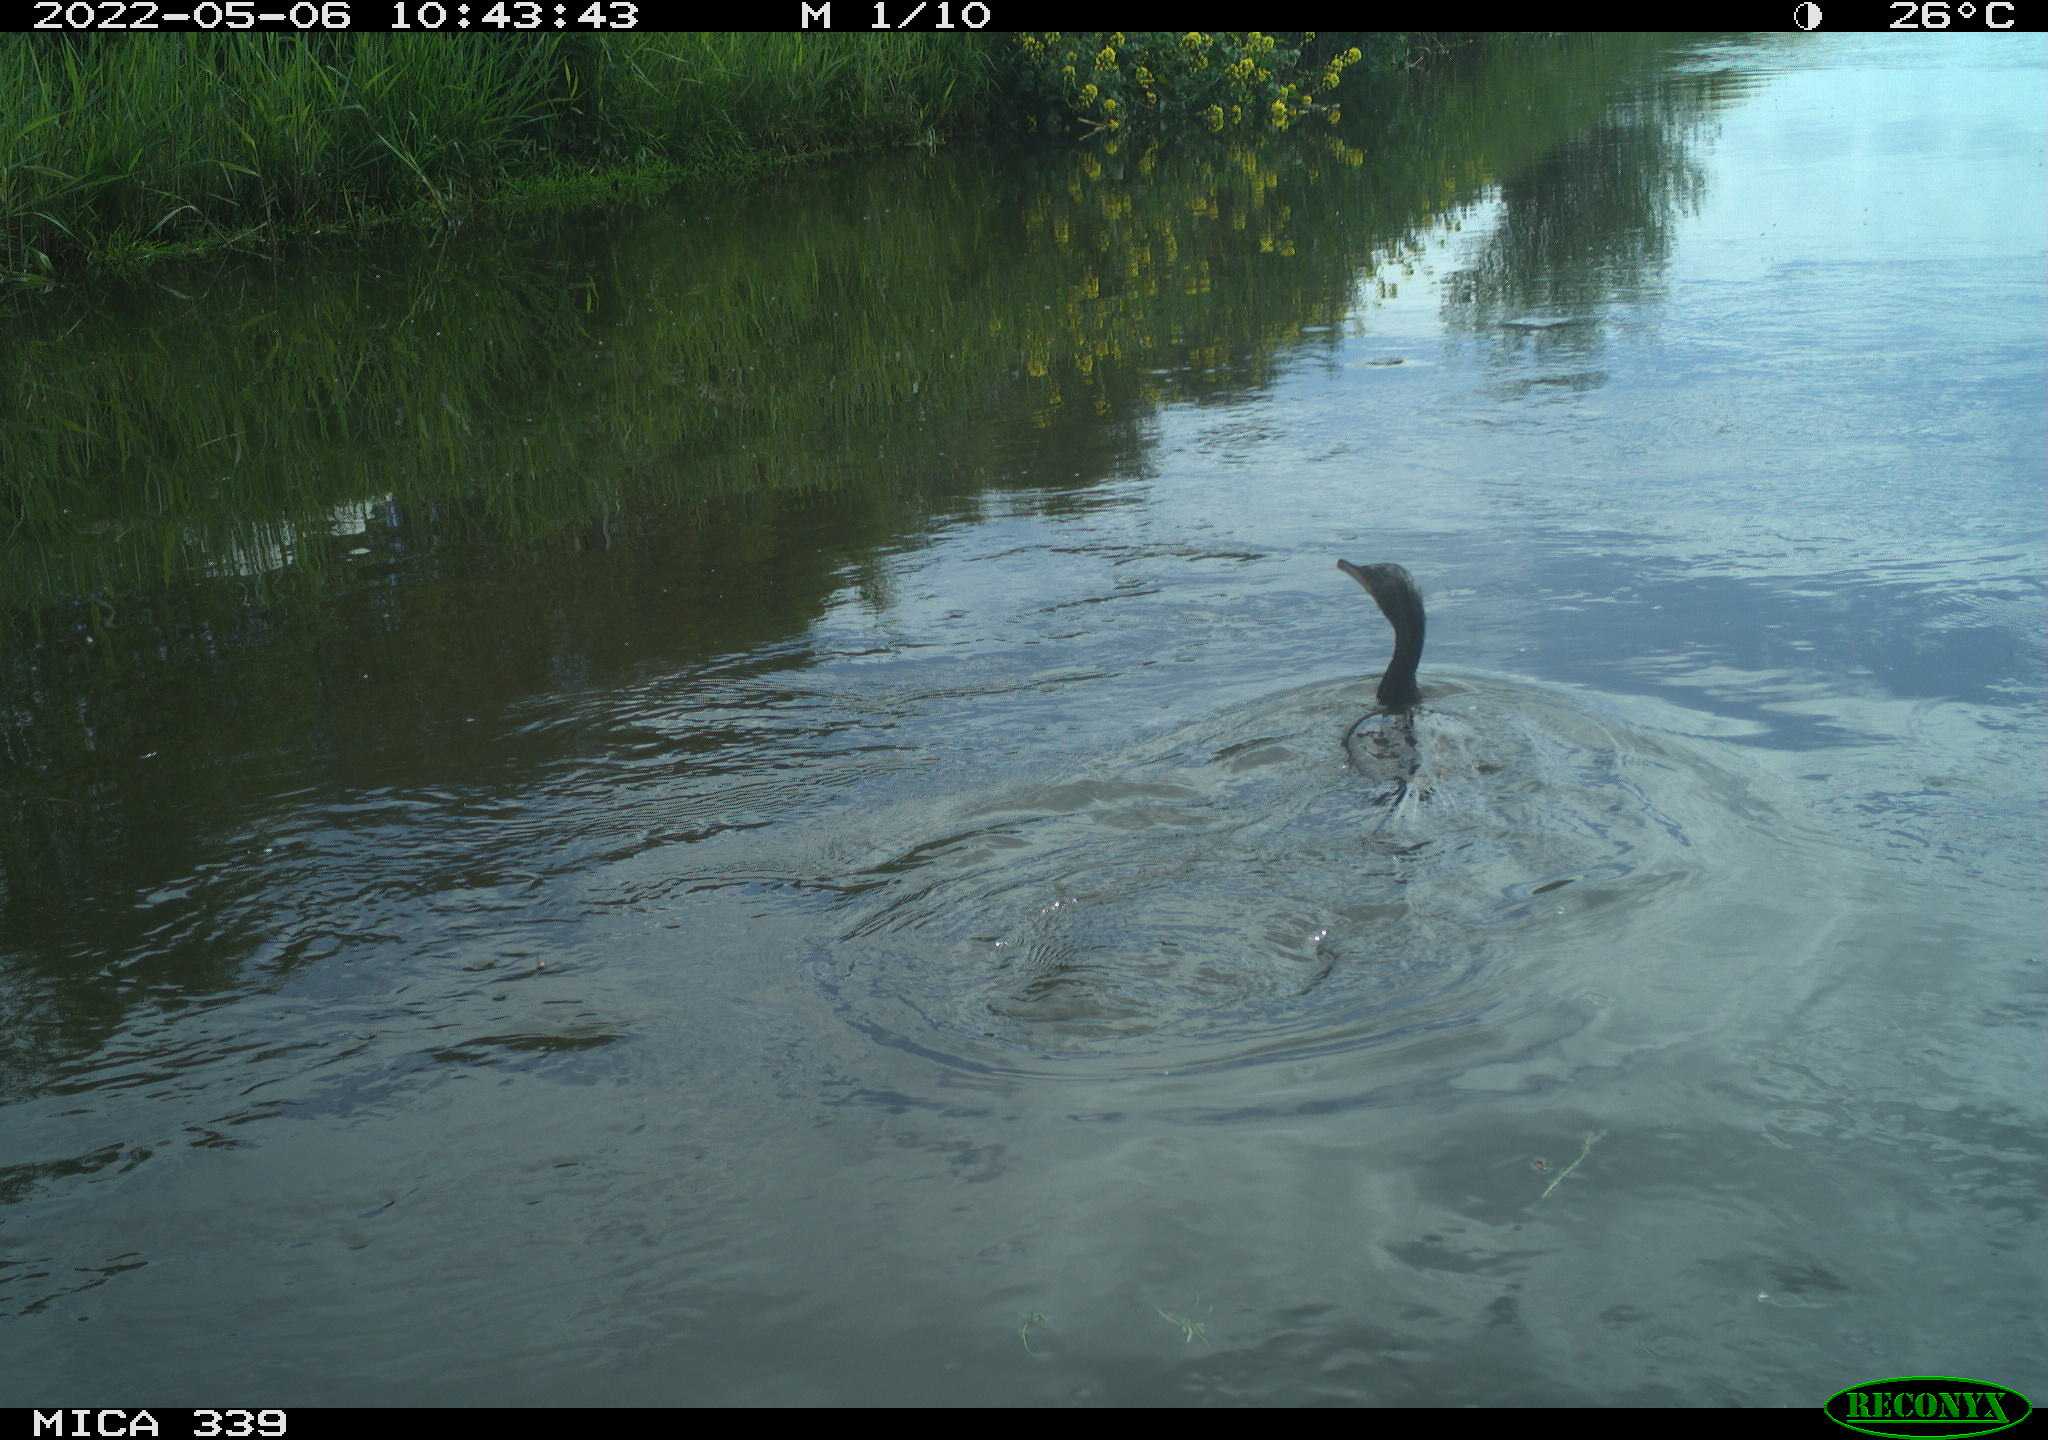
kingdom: Animalia
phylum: Chordata
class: Aves
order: Suliformes
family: Phalacrocoracidae
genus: Phalacrocorax
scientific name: Phalacrocorax carbo
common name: Great cormorant
